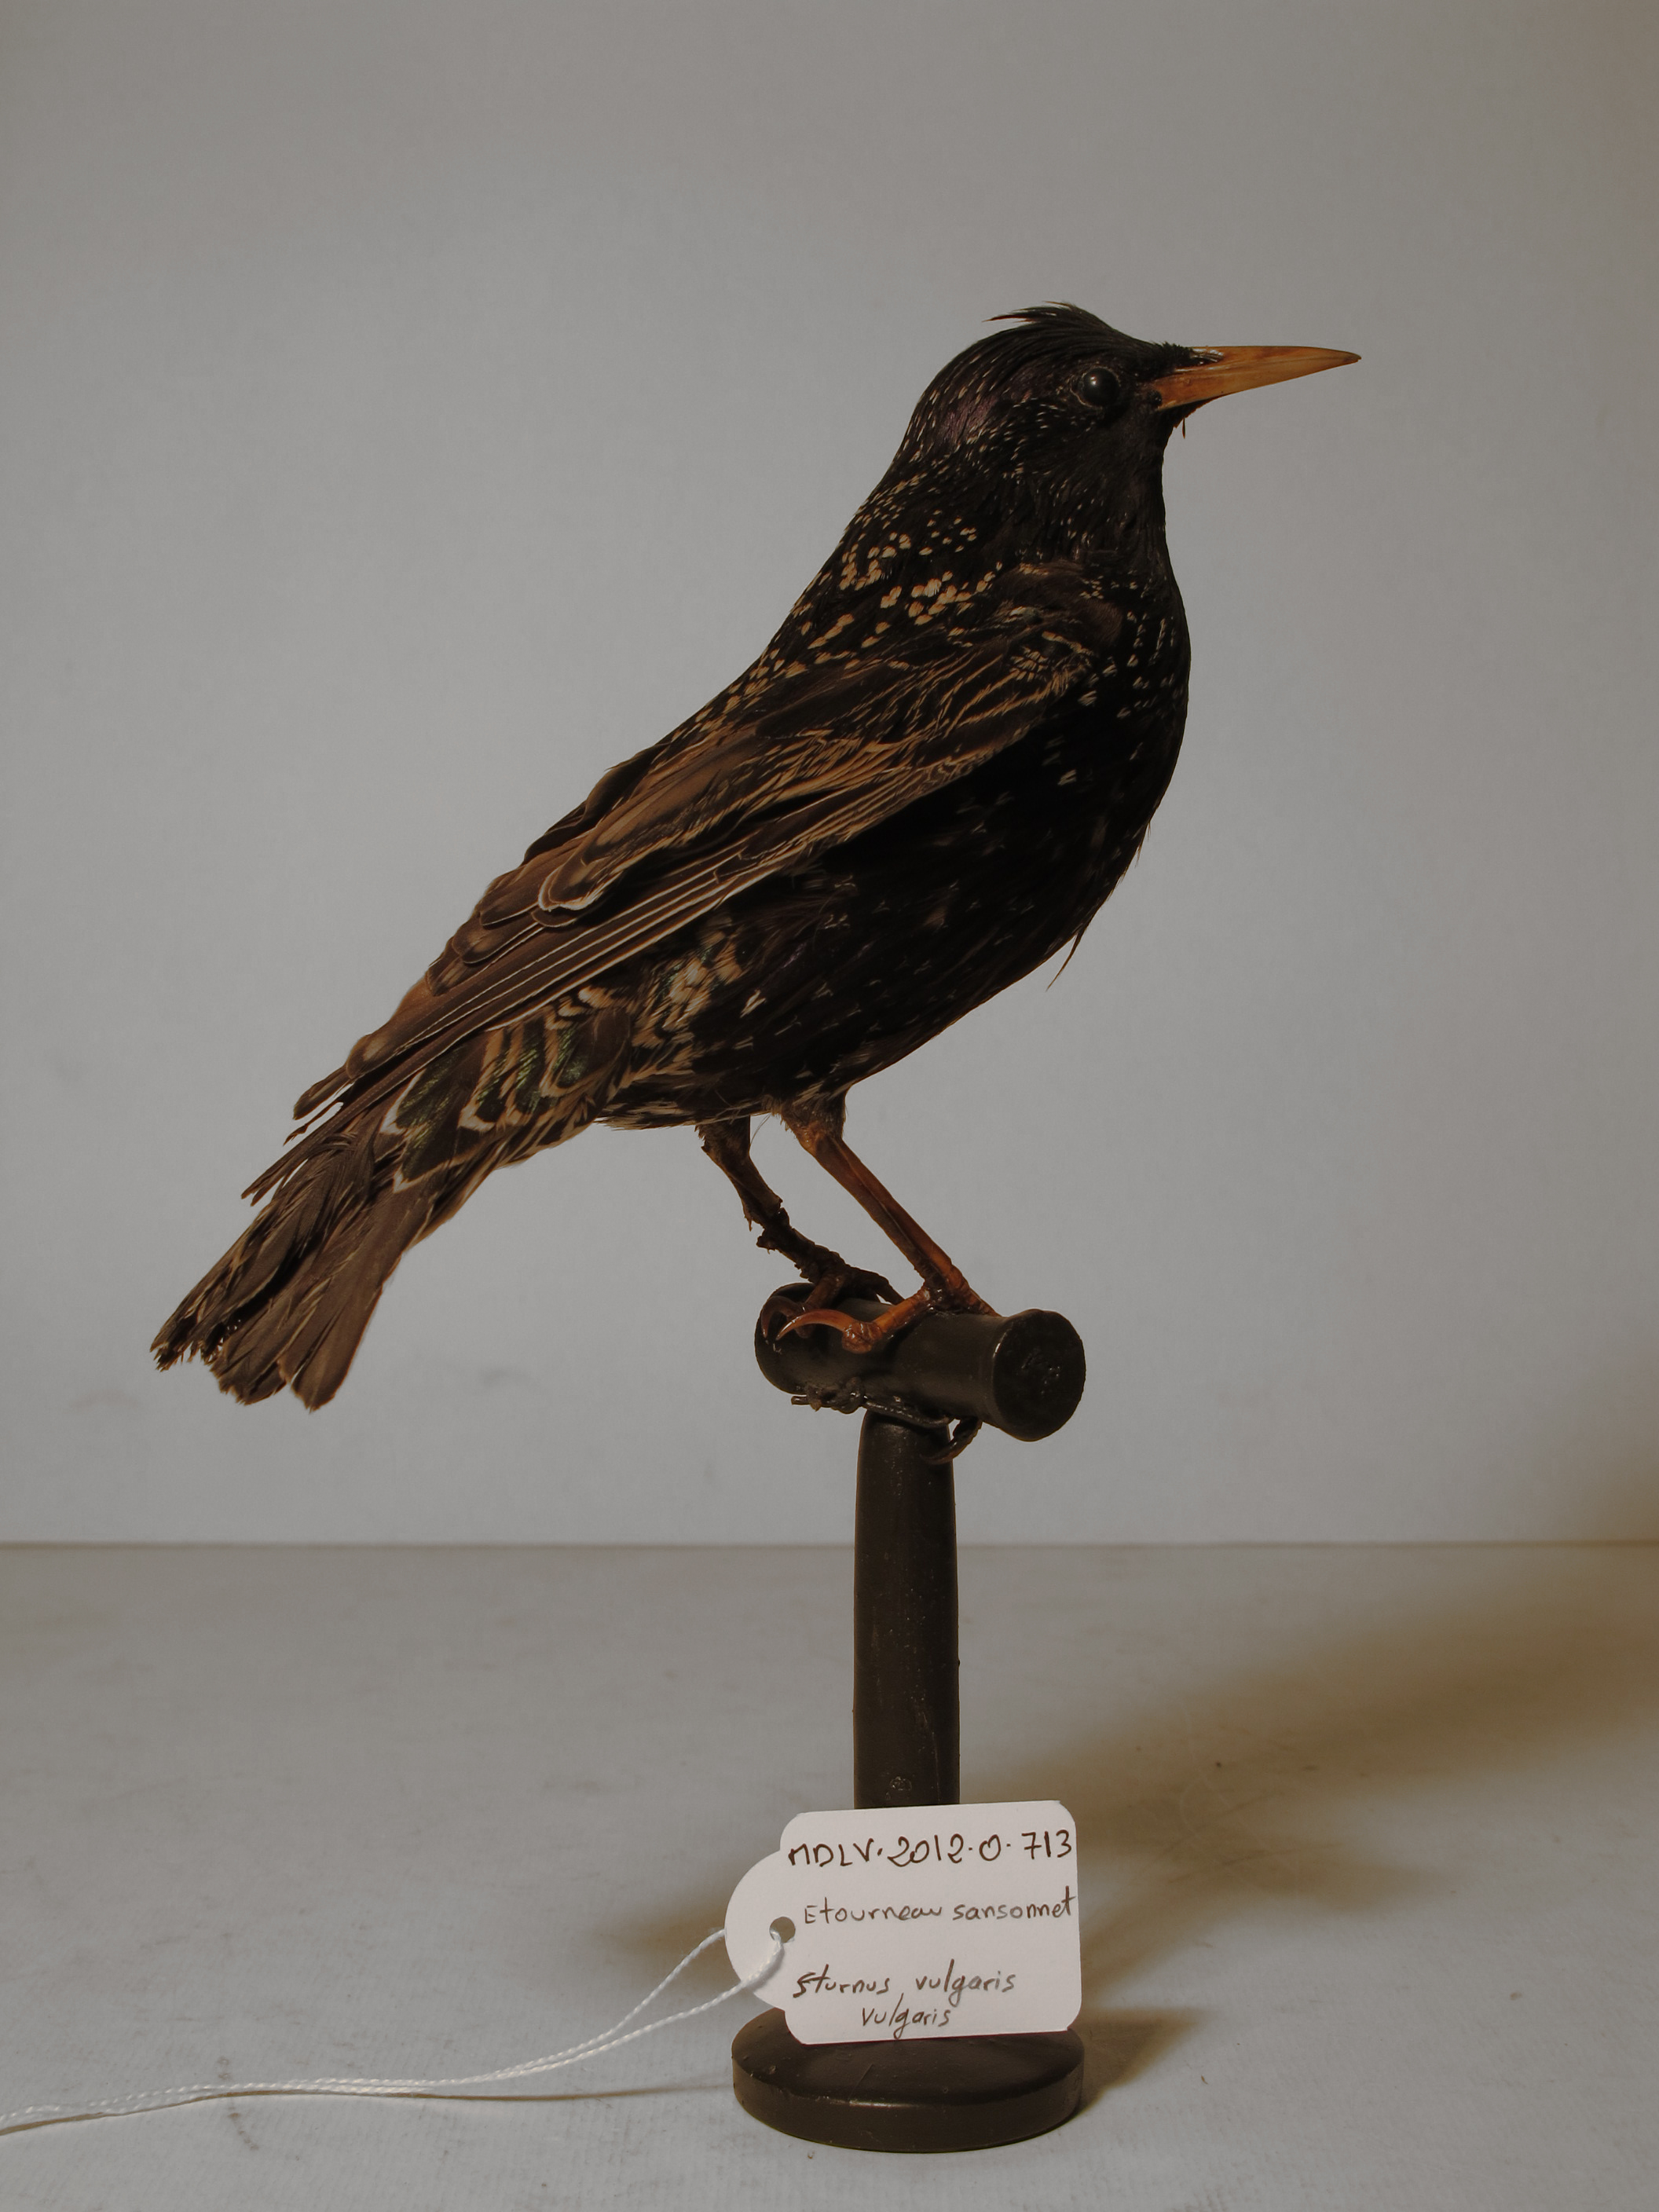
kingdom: Animalia
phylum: Chordata
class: Aves
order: Passeriformes
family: Sturnidae
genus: Sturnus
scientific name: Sturnus vulgaris
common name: Common Starling
